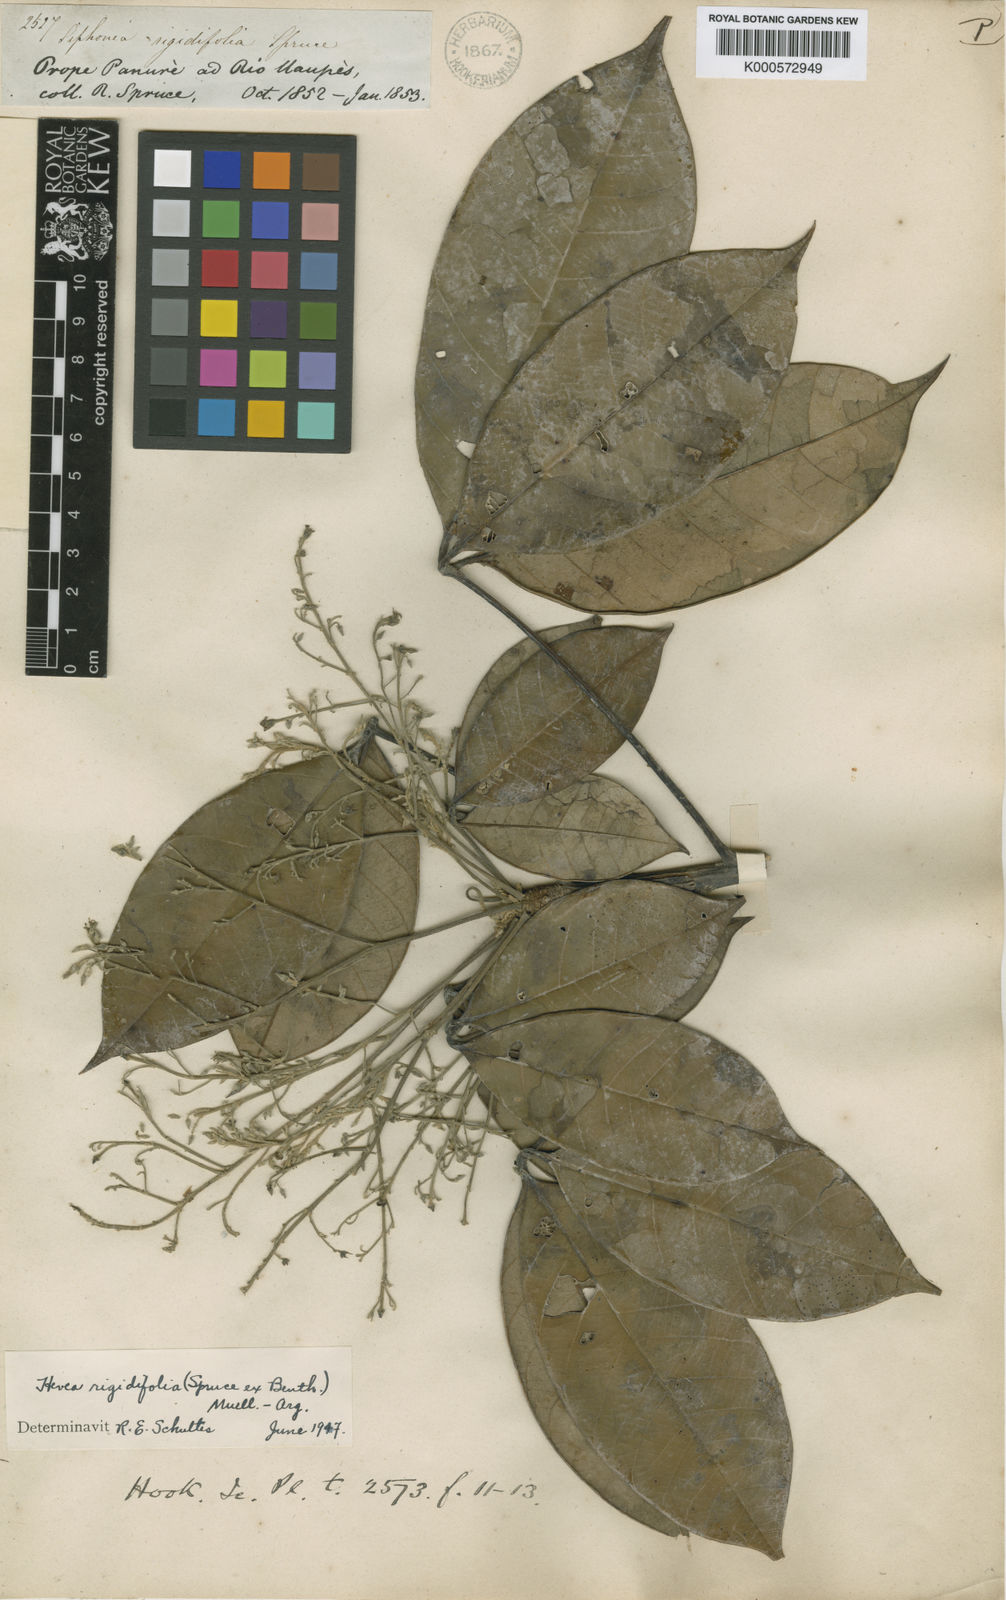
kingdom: Plantae
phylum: Tracheophyta
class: Magnoliopsida
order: Malpighiales
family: Euphorbiaceae
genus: Hevea
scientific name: Hevea
